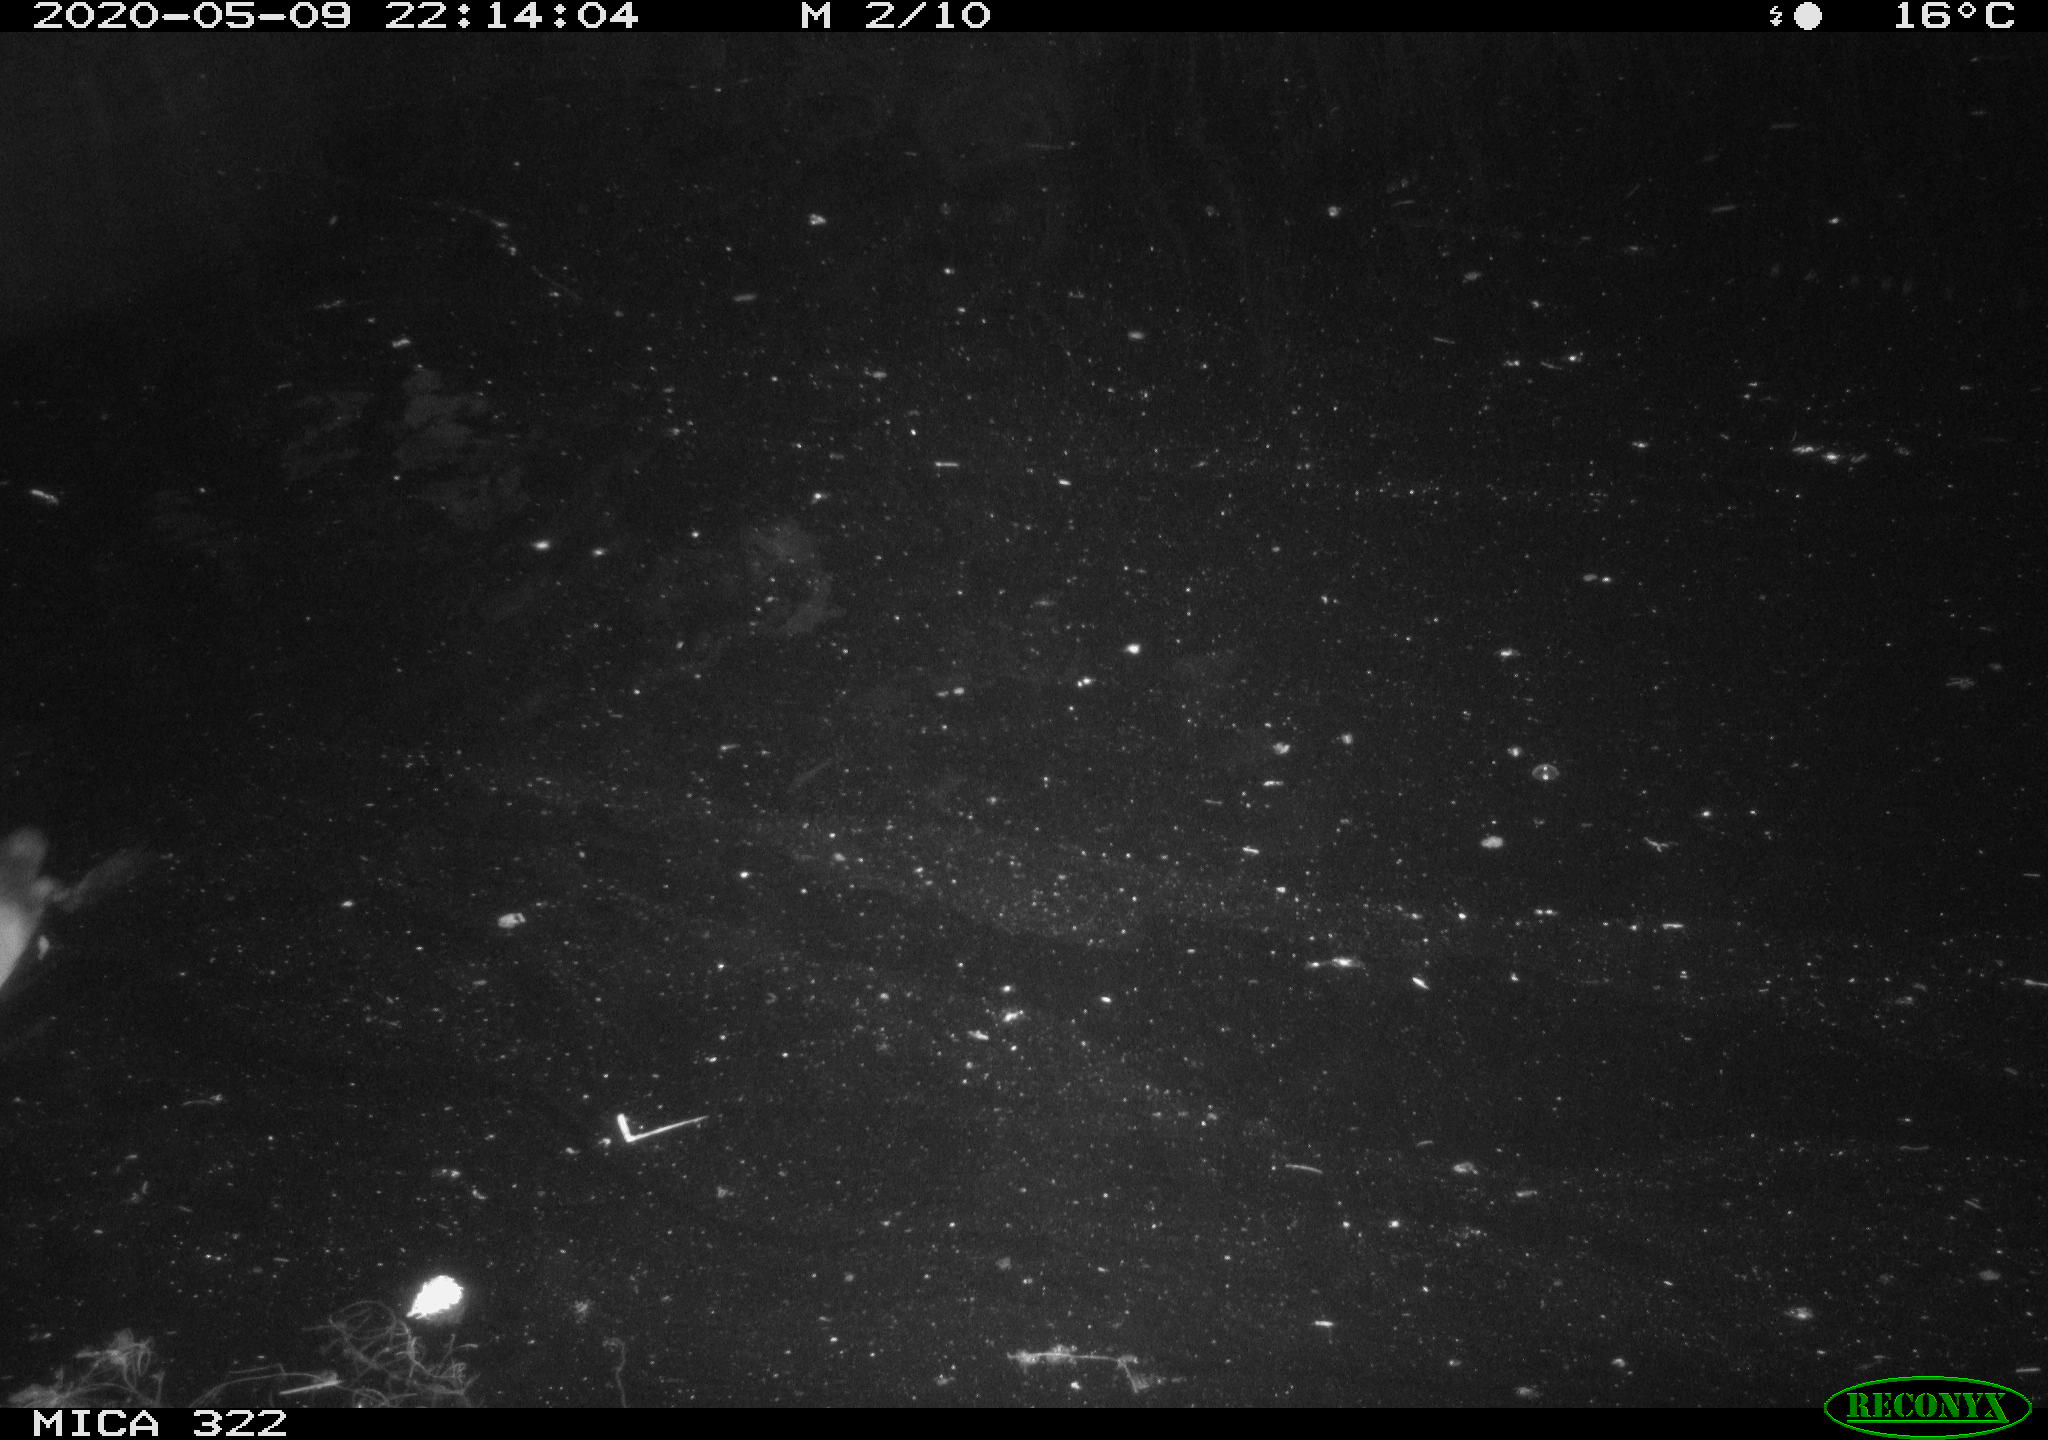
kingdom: Animalia
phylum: Chordata
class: Aves
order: Gruiformes
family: Rallidae
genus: Fulica
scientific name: Fulica atra
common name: Eurasian coot
